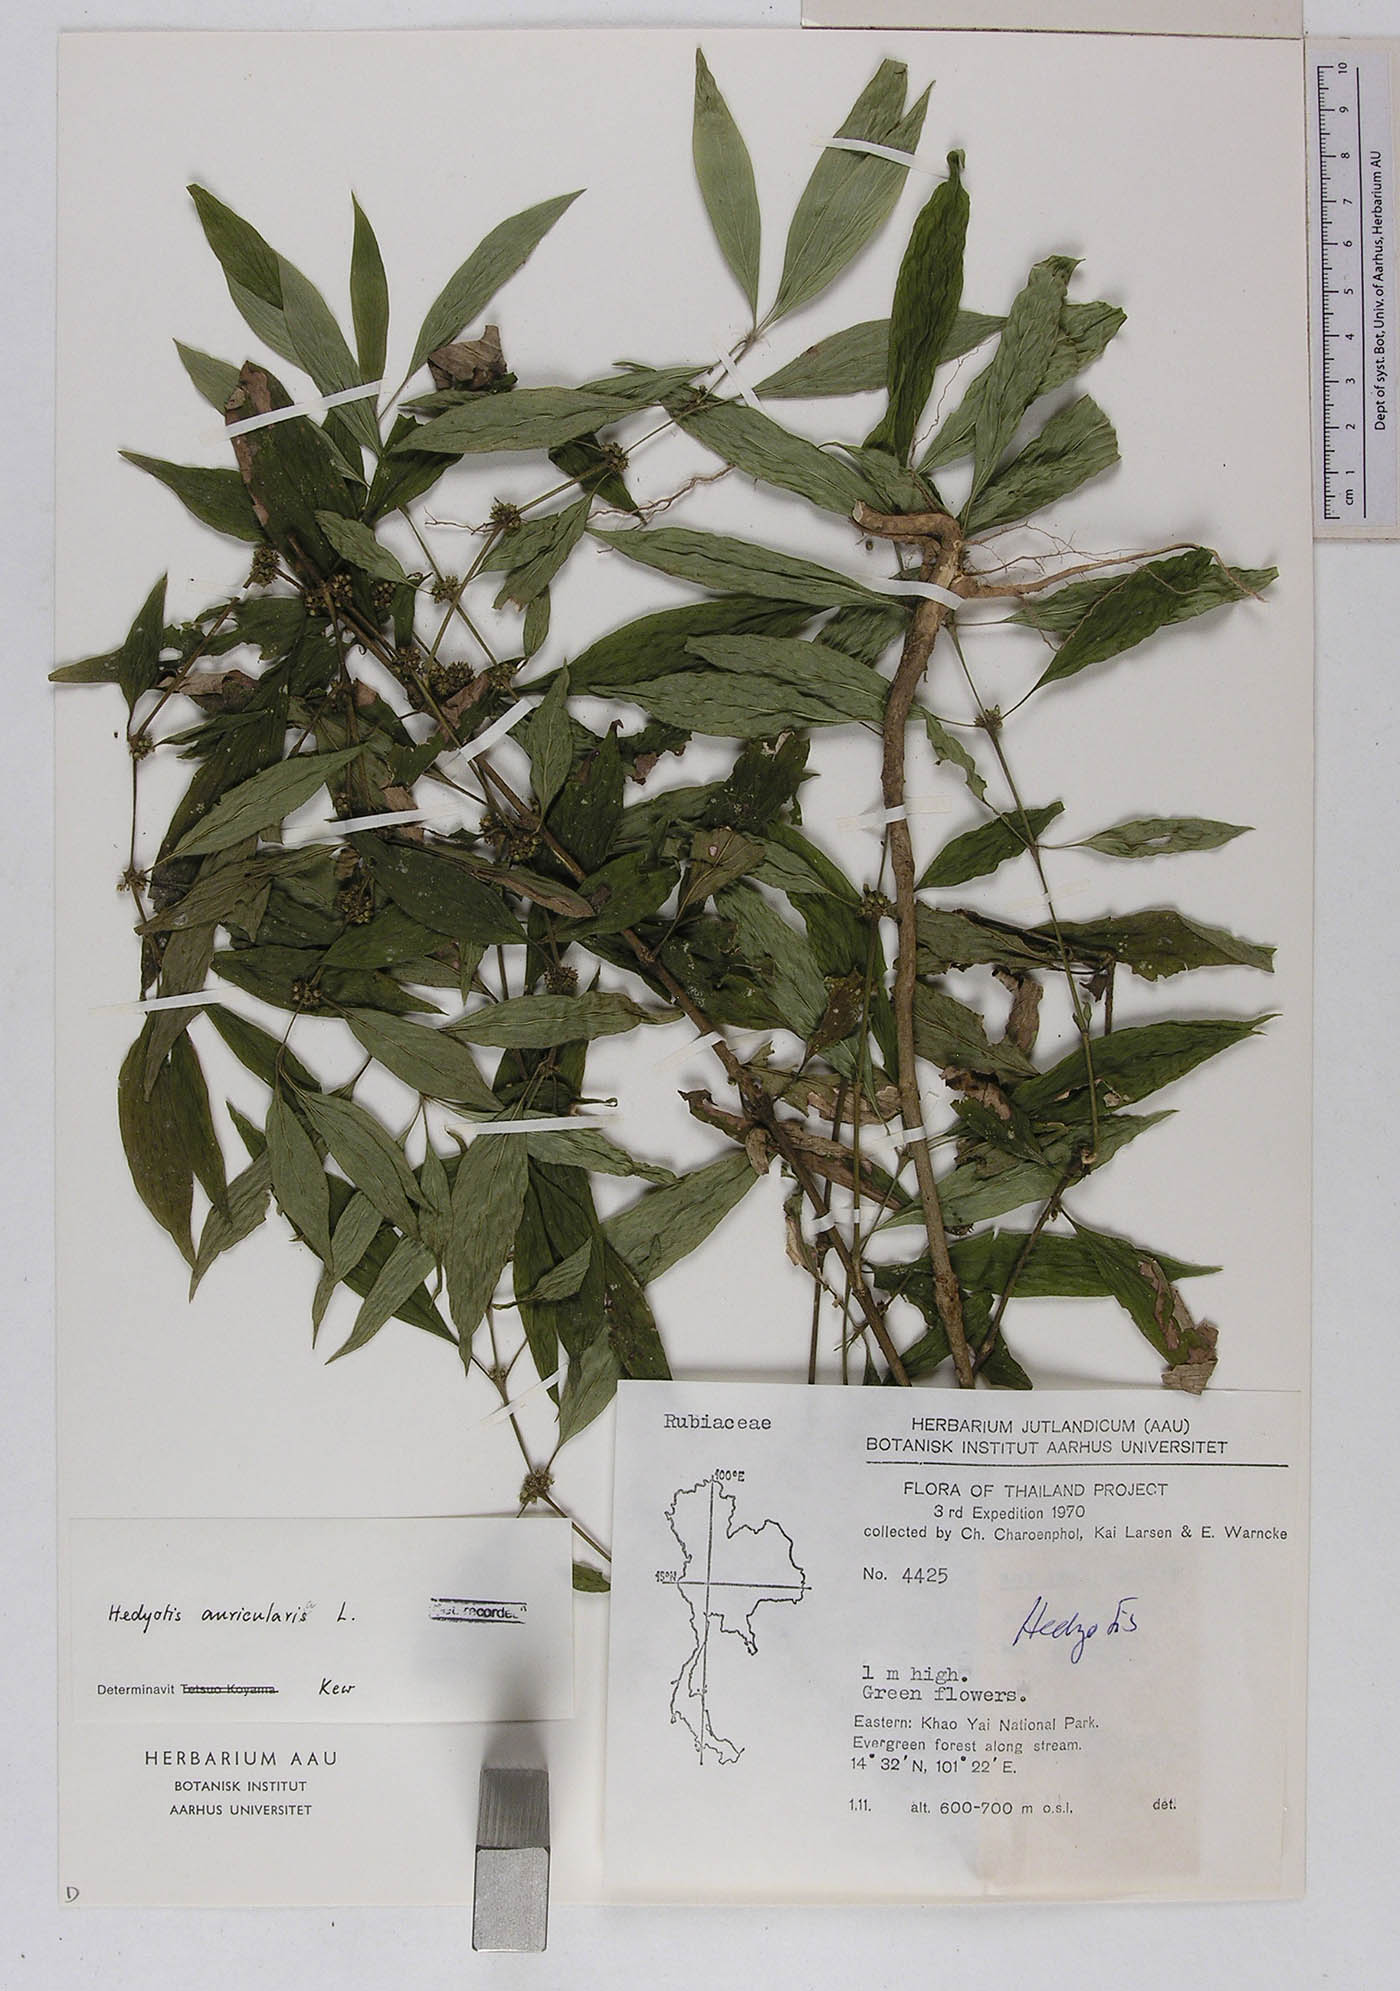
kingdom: Plantae
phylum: Tracheophyta
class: Magnoliopsida
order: Gentianales
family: Rubiaceae
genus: Exallage
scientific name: Exallage auricularia
